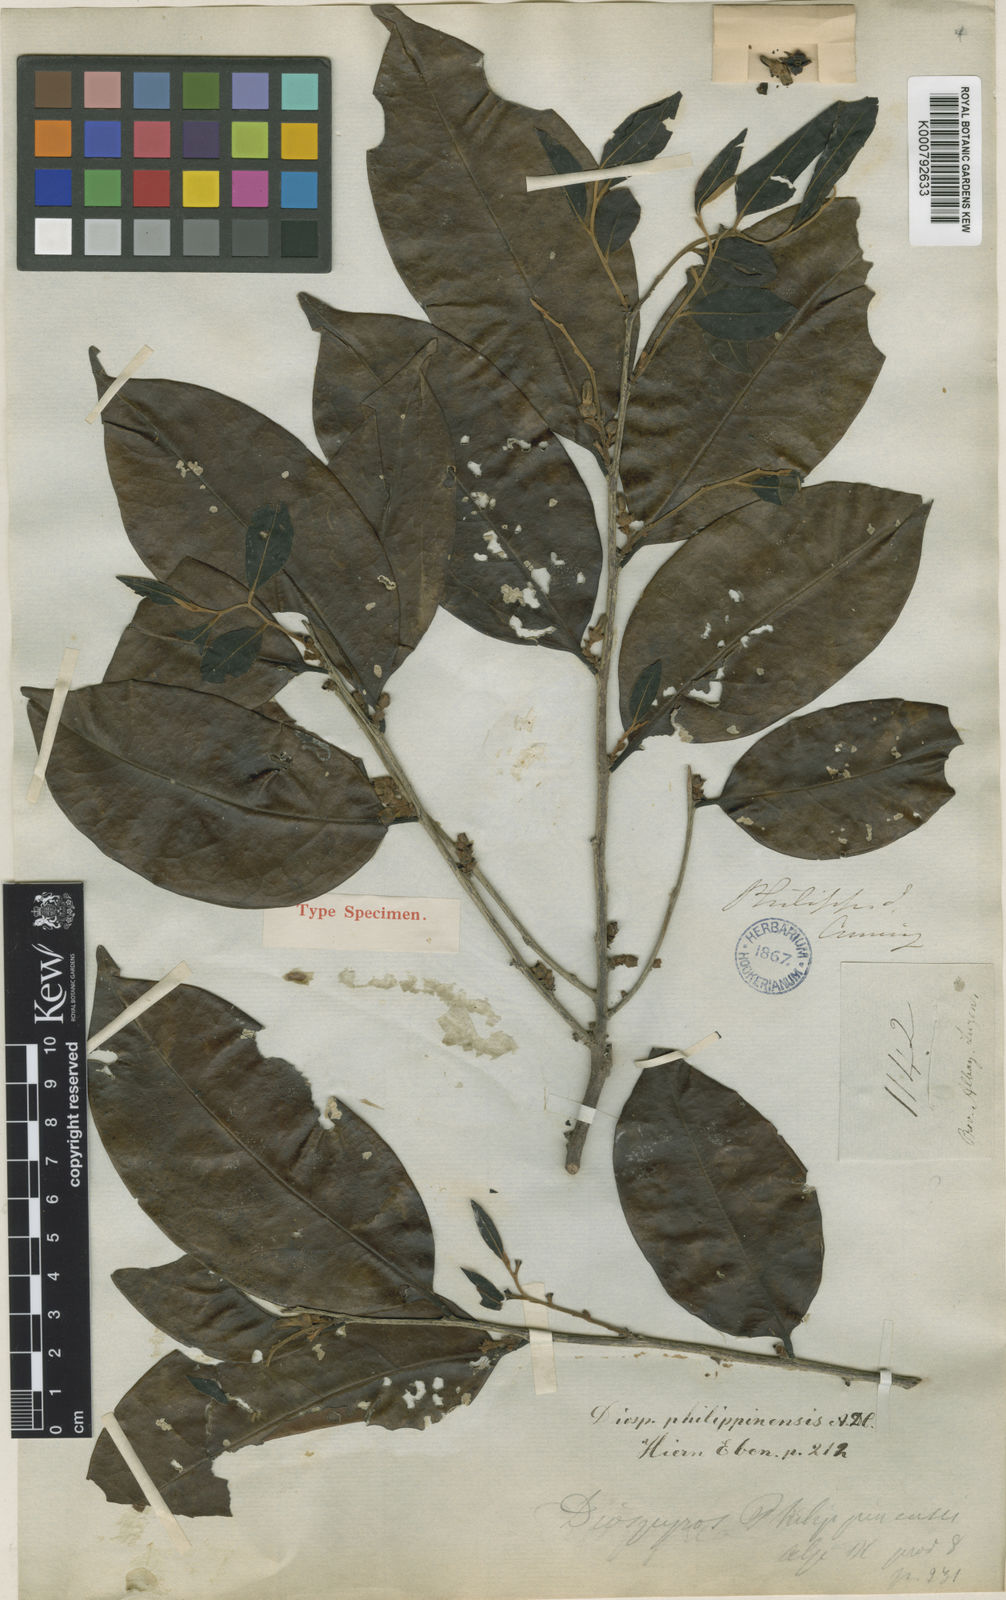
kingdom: Plantae
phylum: Tracheophyta
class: Magnoliopsida
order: Ericales
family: Ebenaceae
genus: Diospyros
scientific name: Diospyros philippinensis
